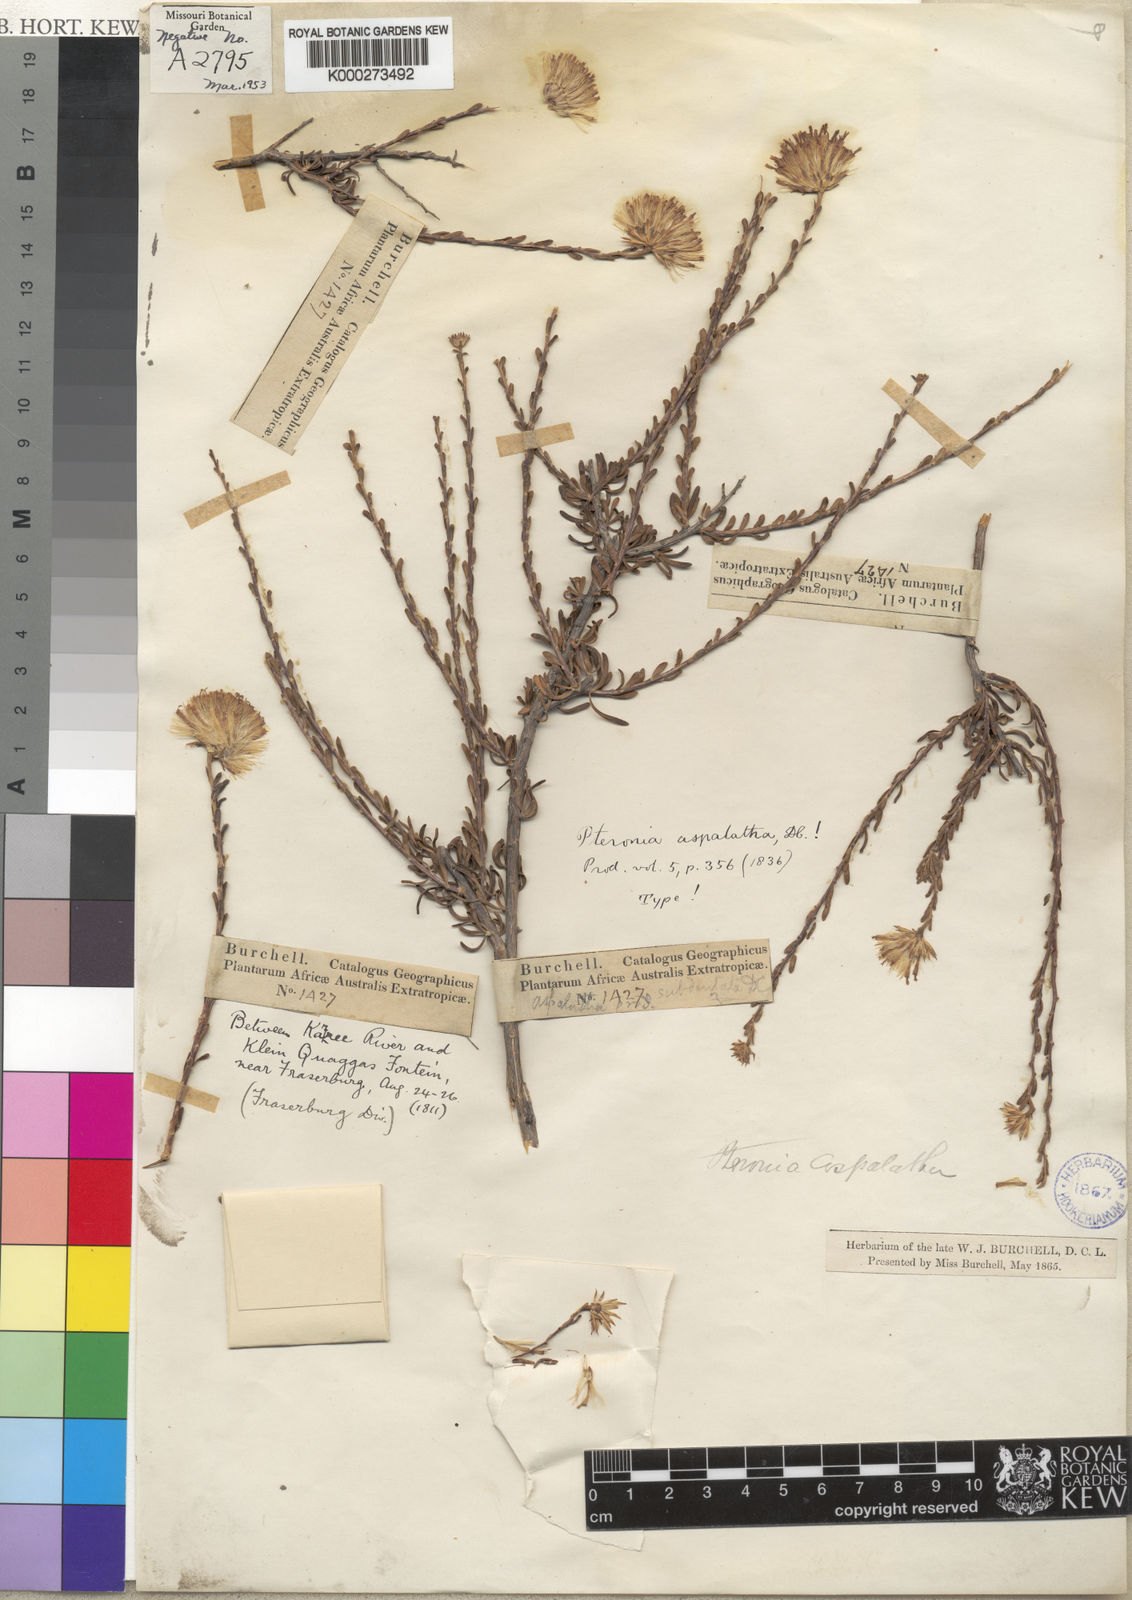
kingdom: Plantae
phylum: Tracheophyta
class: Magnoliopsida
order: Asterales
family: Asteraceae
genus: Pteronia
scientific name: Pteronia aspalatha
